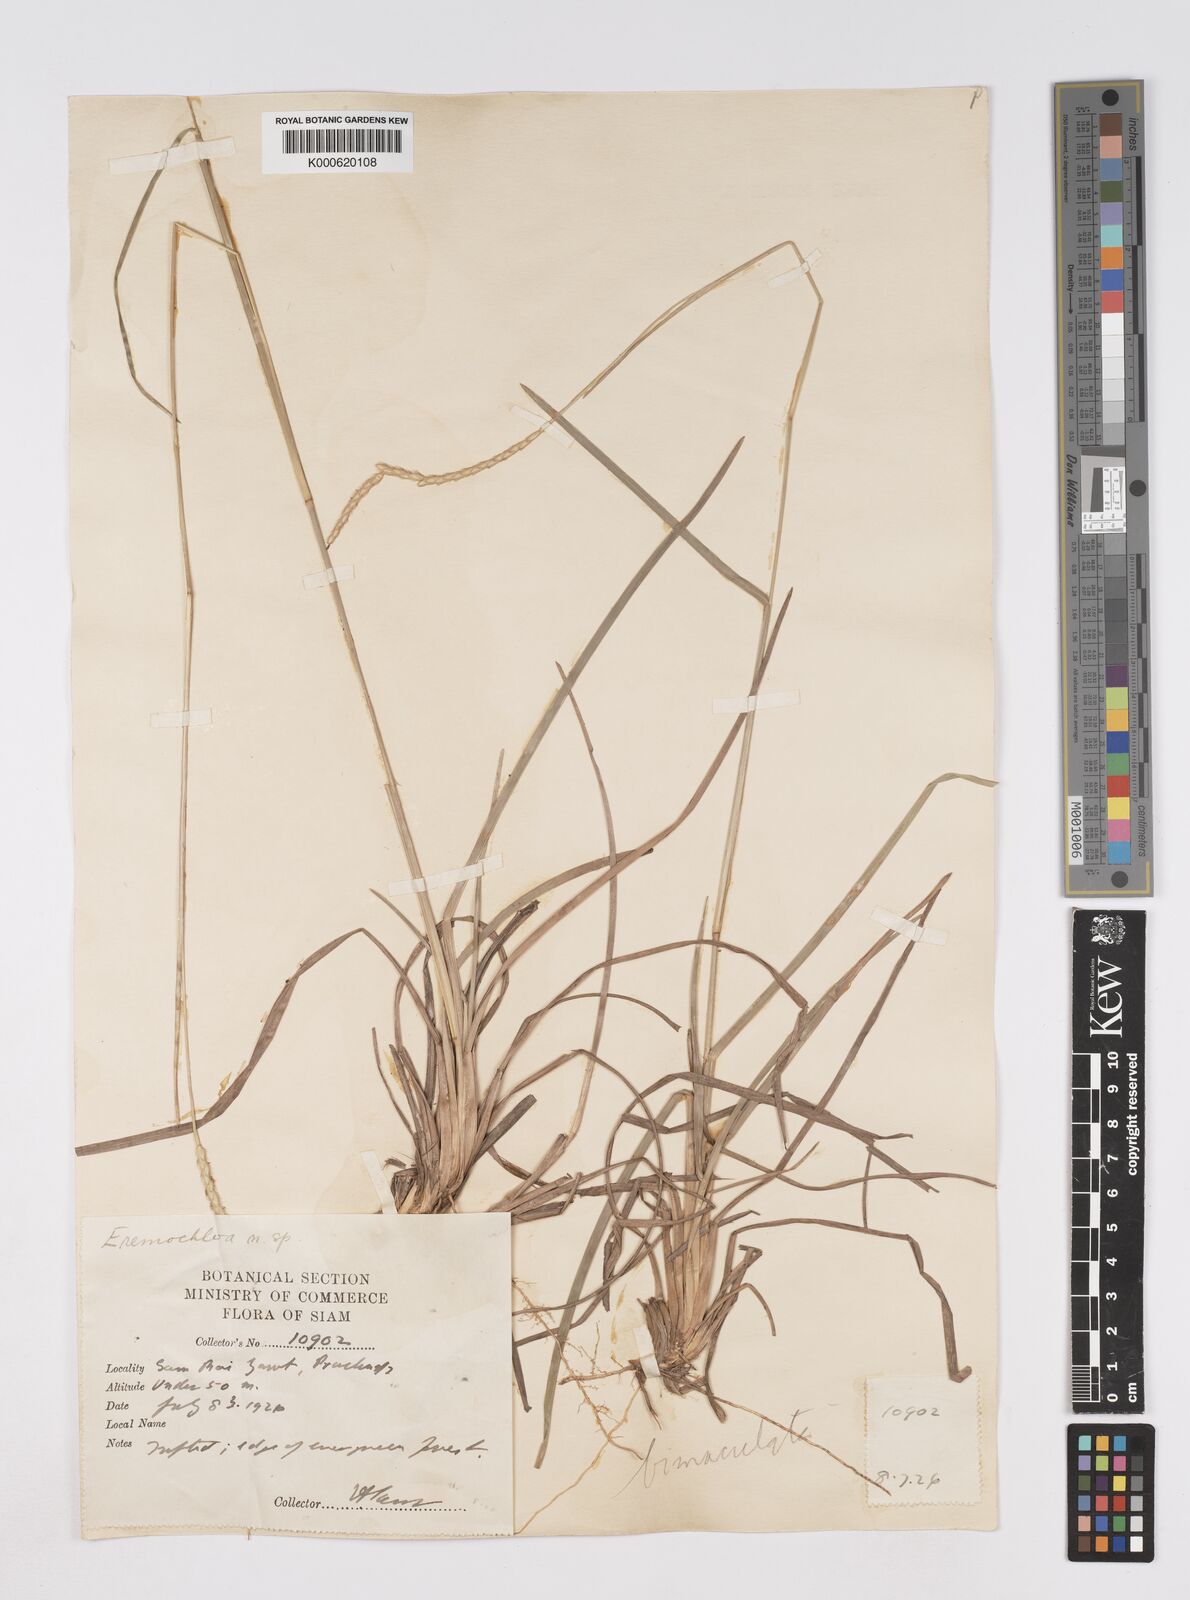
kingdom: Plantae
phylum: Tracheophyta
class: Liliopsida
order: Poales
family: Poaceae
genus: Eremochloa
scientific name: Eremochloa bimaculata
